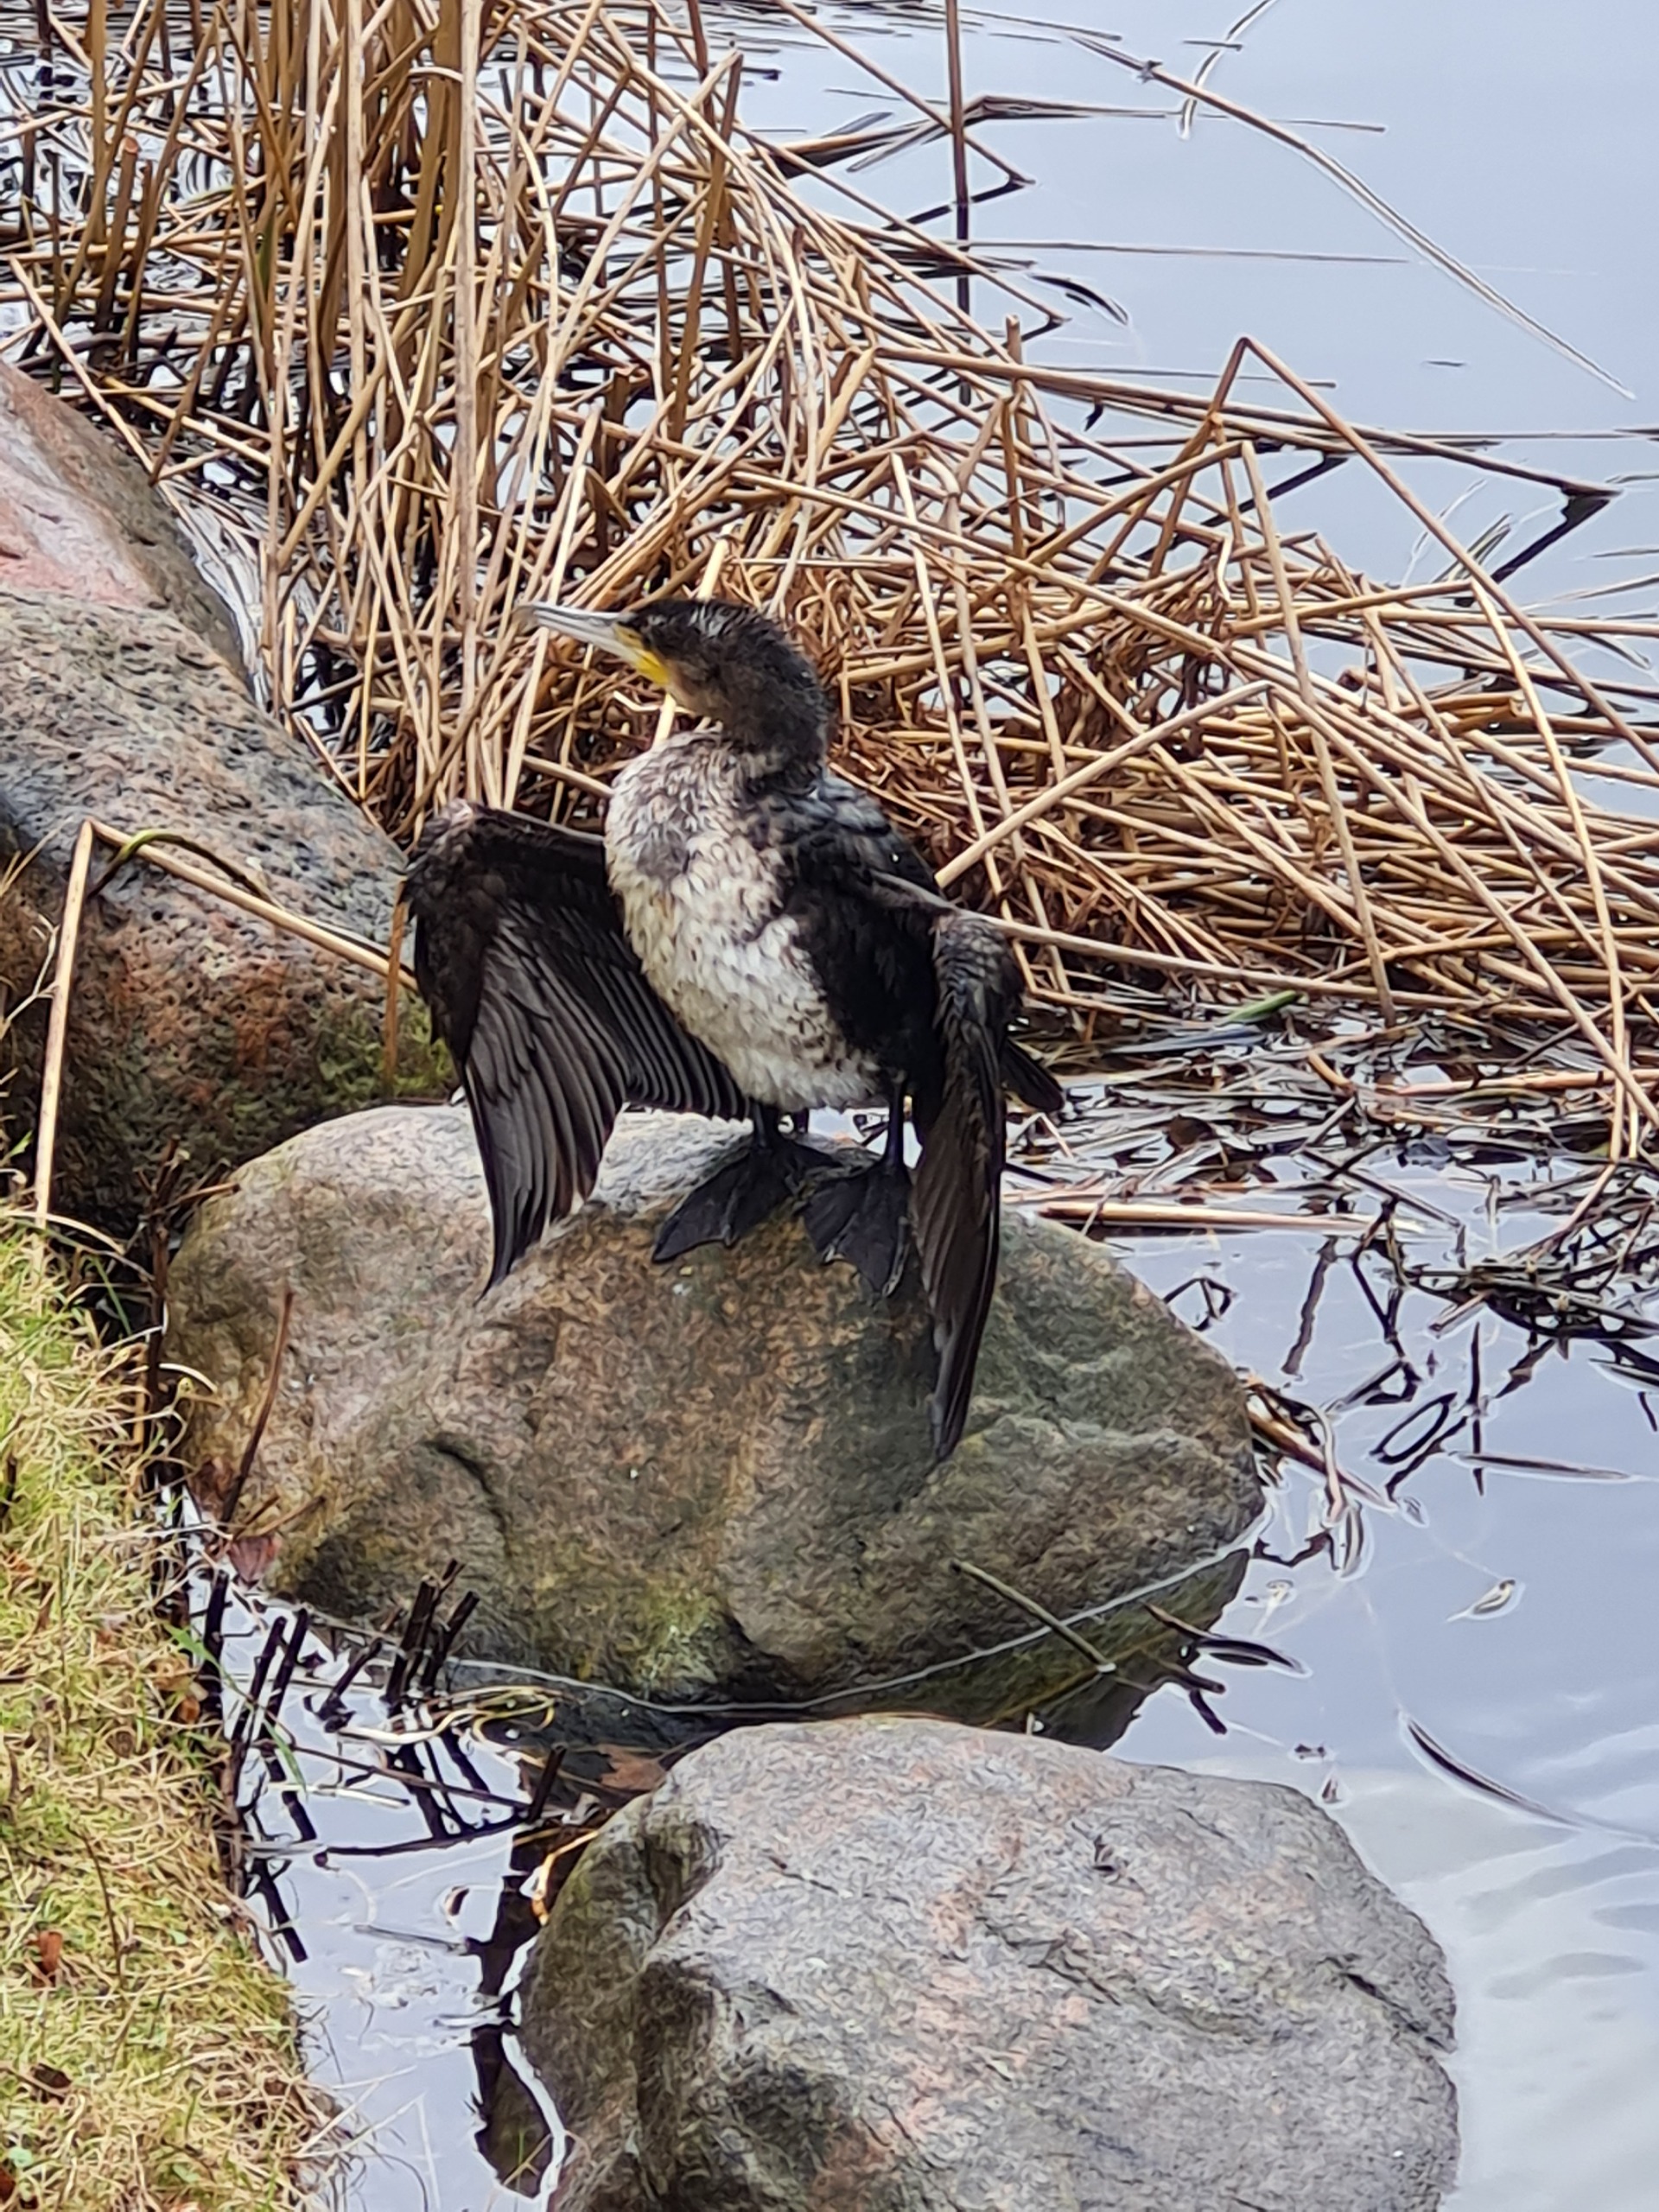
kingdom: Animalia
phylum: Chordata
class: Aves
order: Suliformes
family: Phalacrocoracidae
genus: Phalacrocorax
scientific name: Phalacrocorax carbo
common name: Skarv
